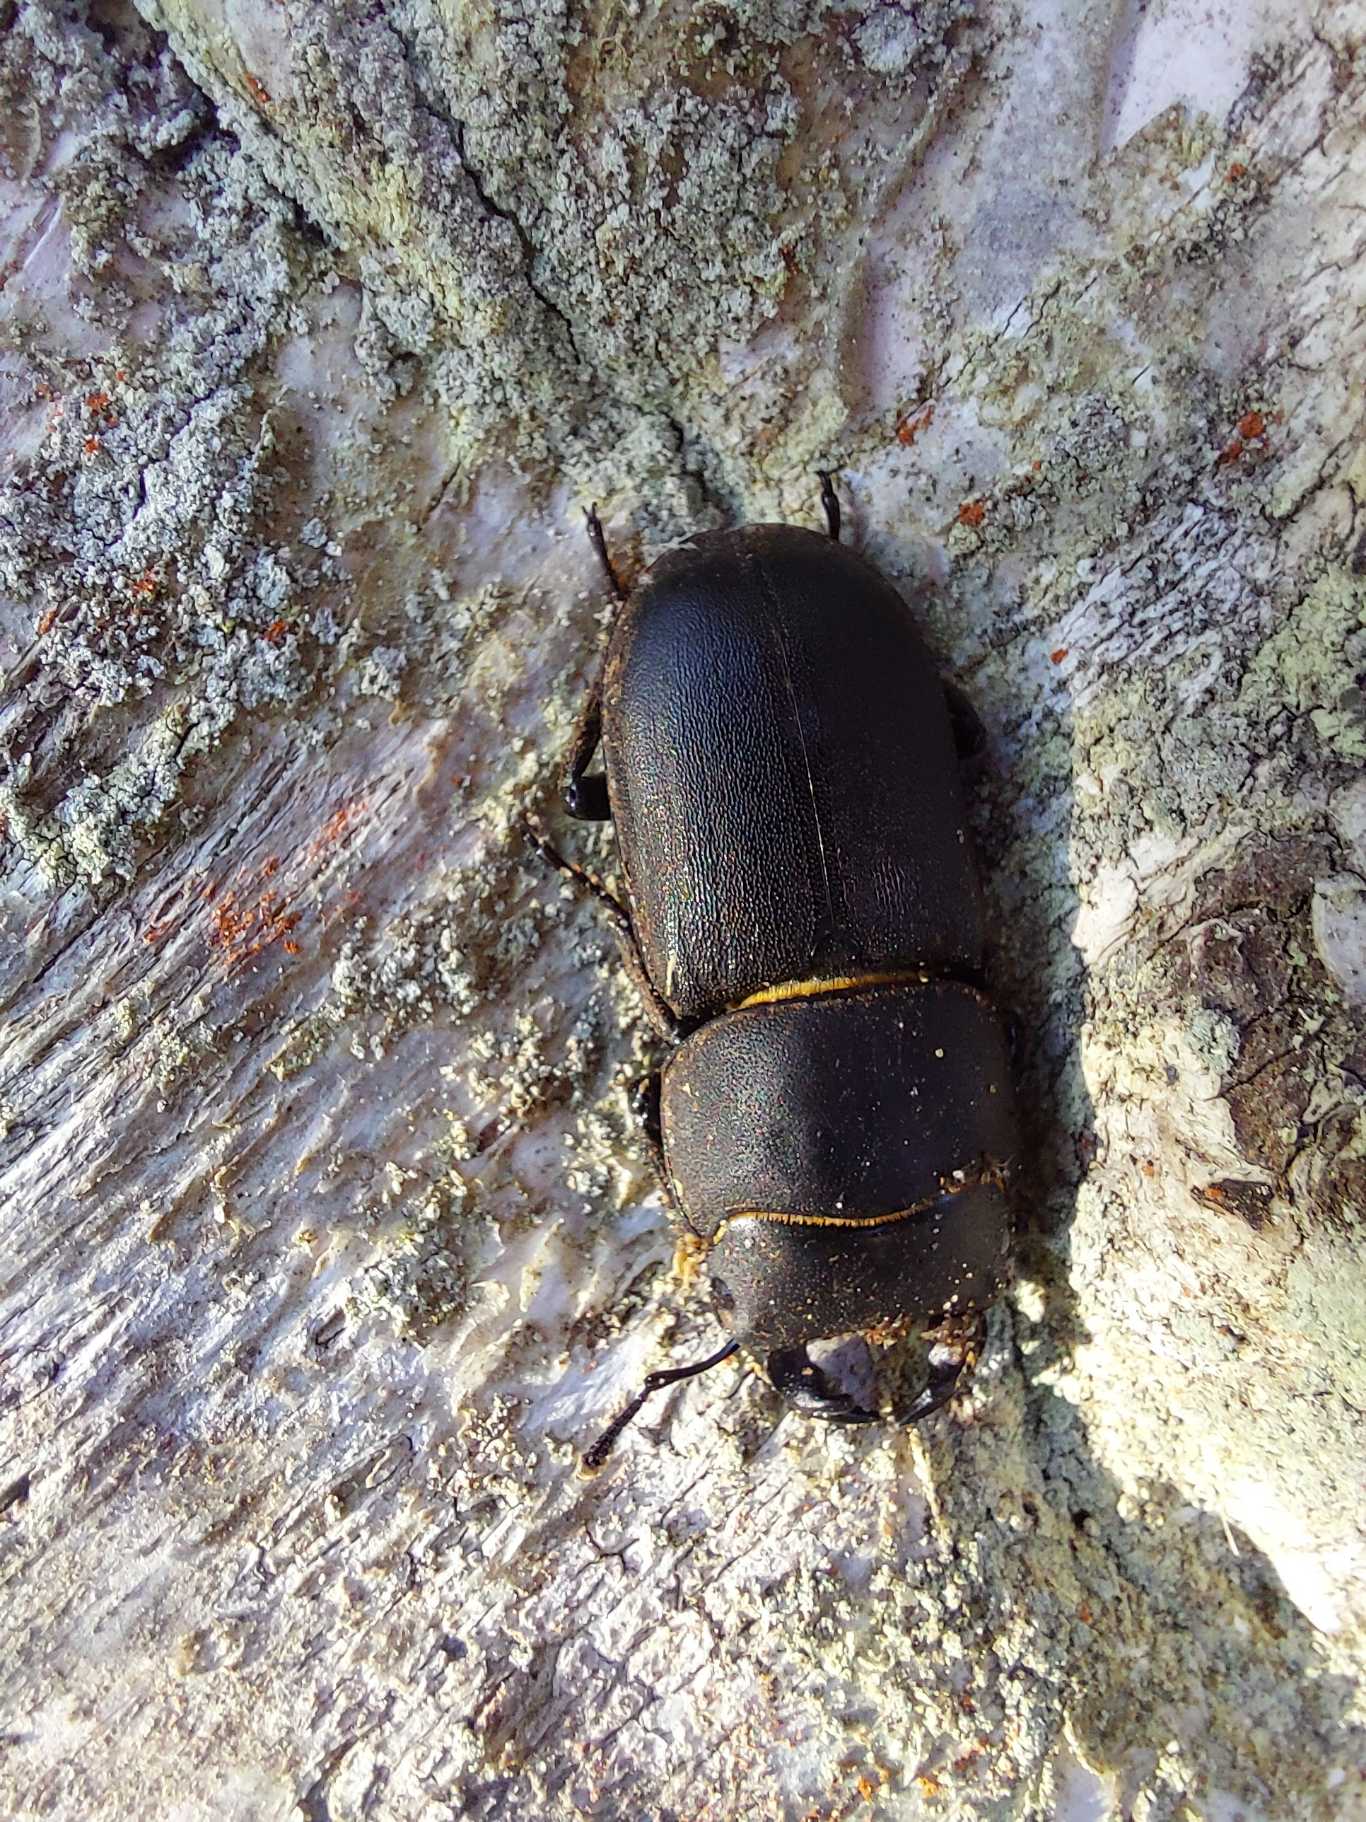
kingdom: Animalia
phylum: Arthropoda
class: Insecta
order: Coleoptera
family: Lucanidae
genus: Dorcus
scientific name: Dorcus parallelipipedus
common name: Bøghjort
